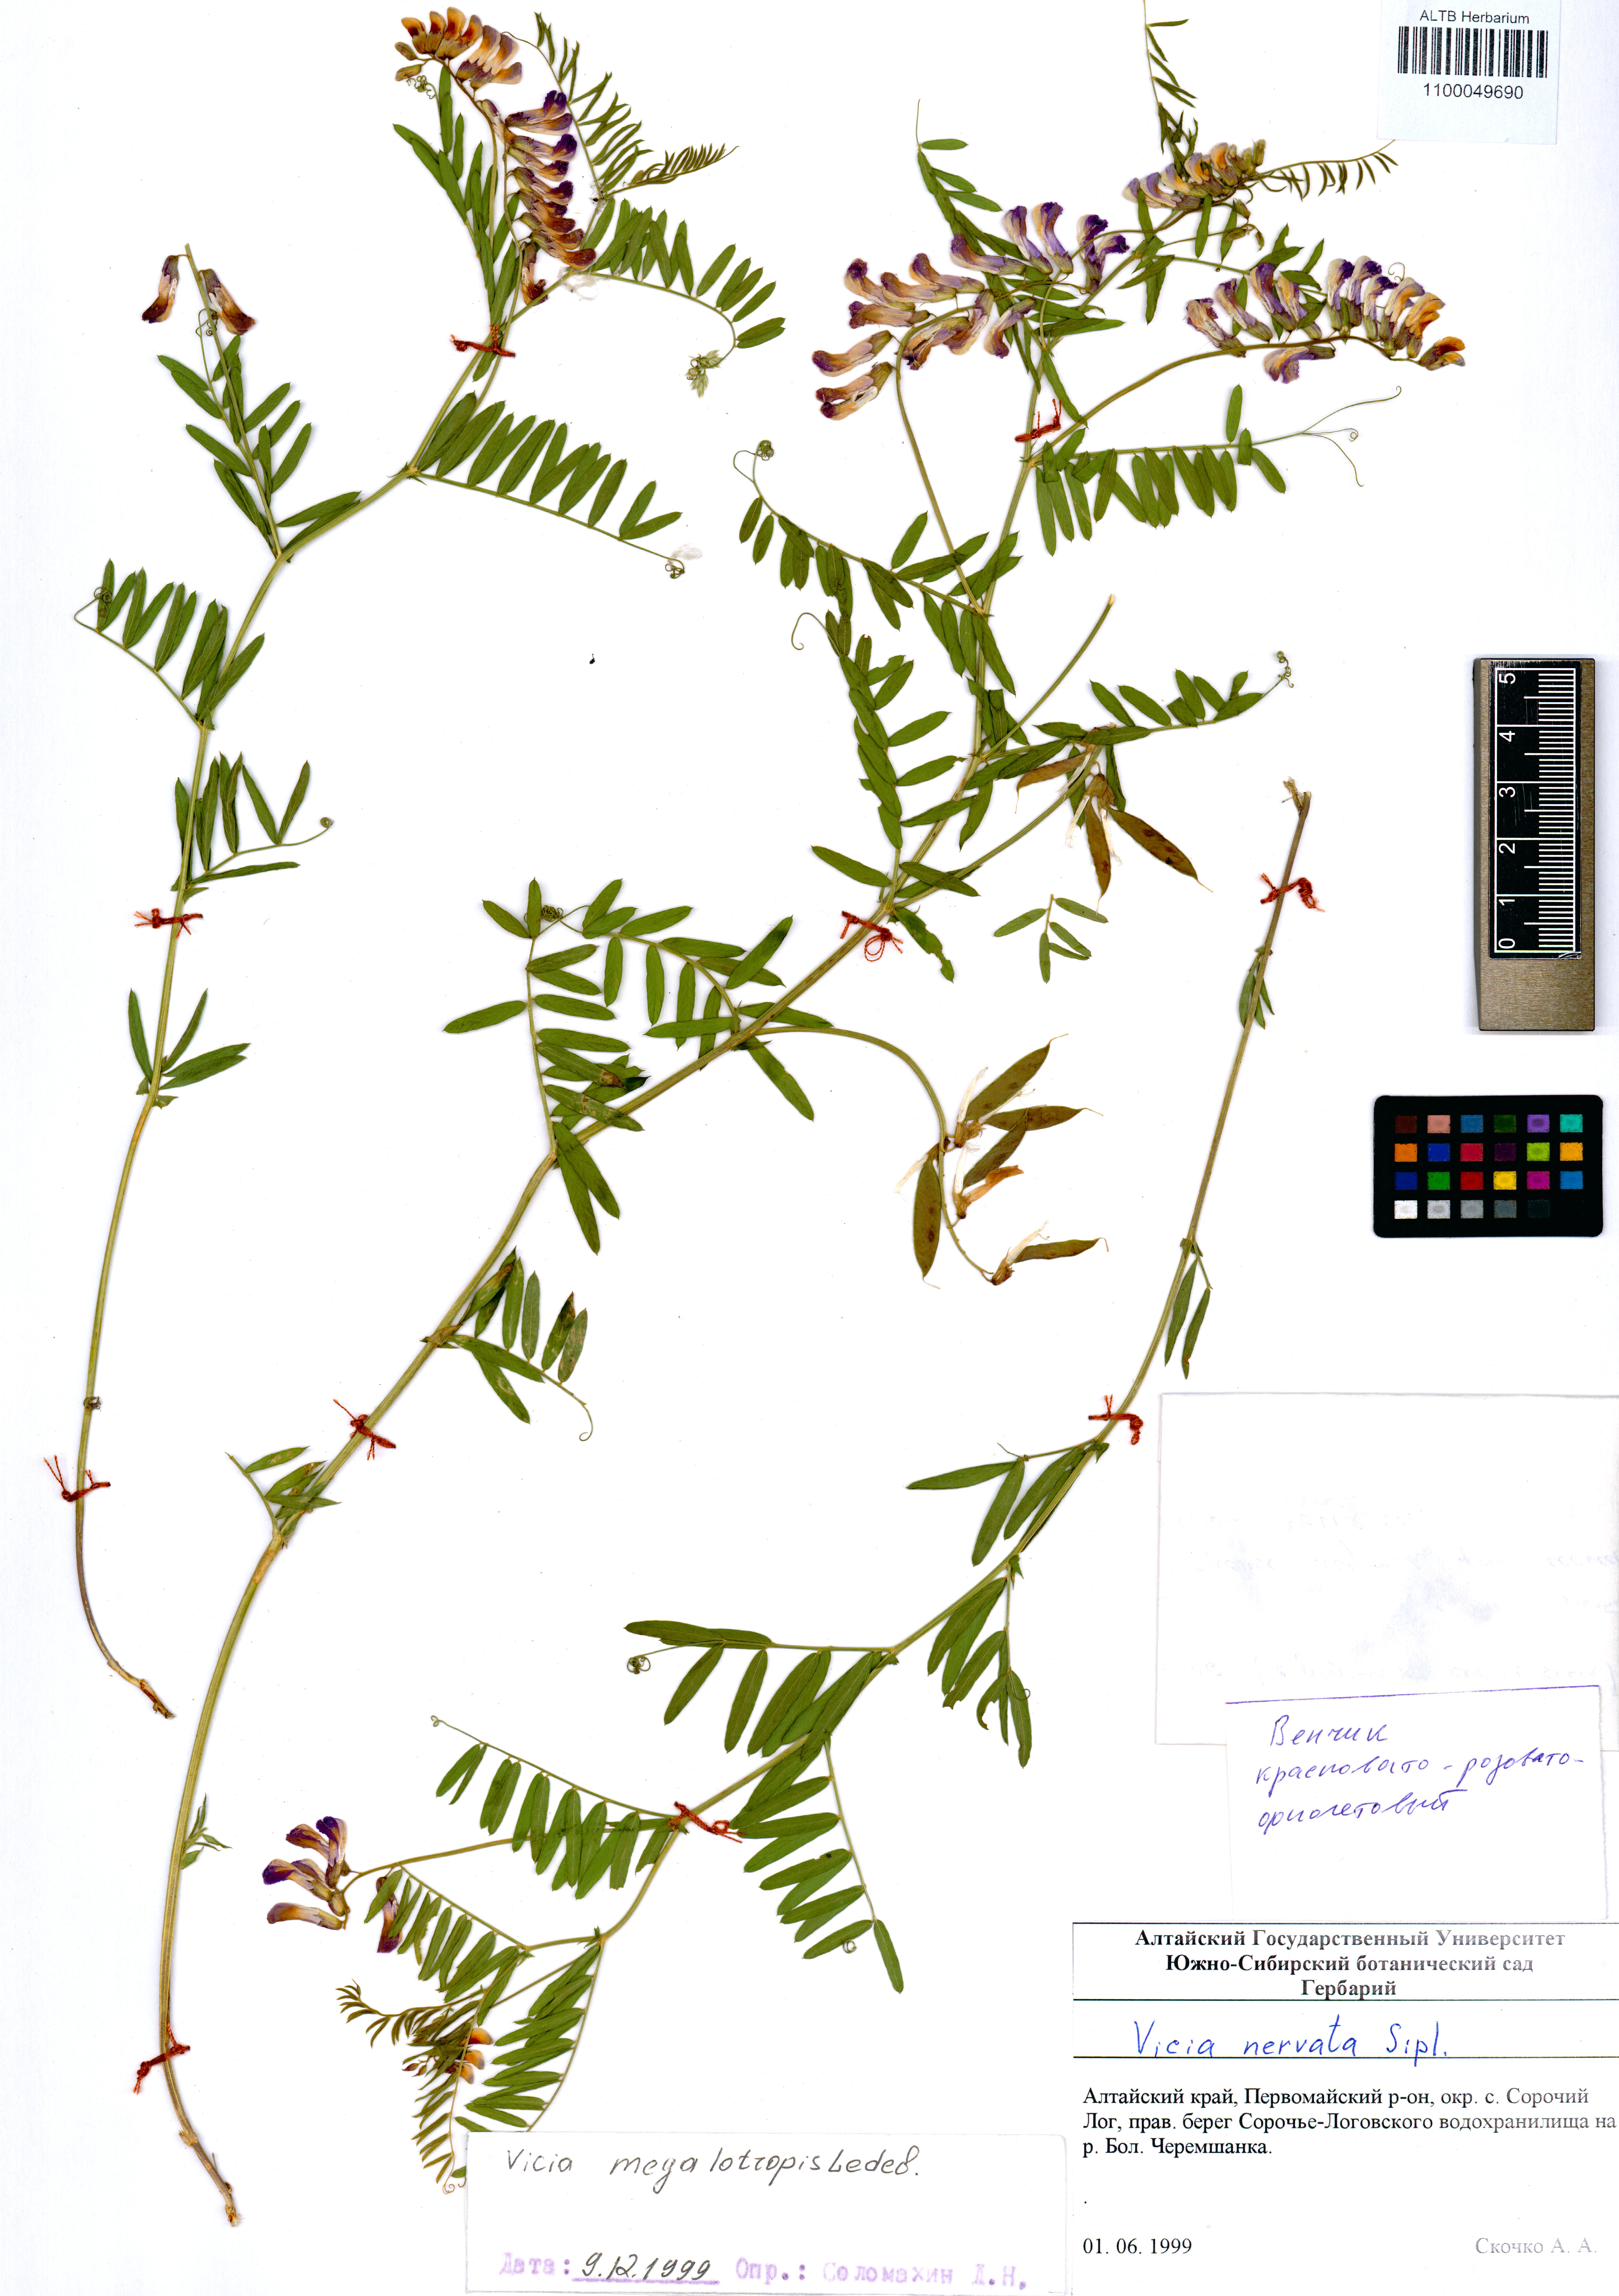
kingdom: Plantae
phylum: Tracheophyta
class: Magnoliopsida
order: Fabales
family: Fabaceae
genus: Vicia
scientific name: Vicia multicaulis
